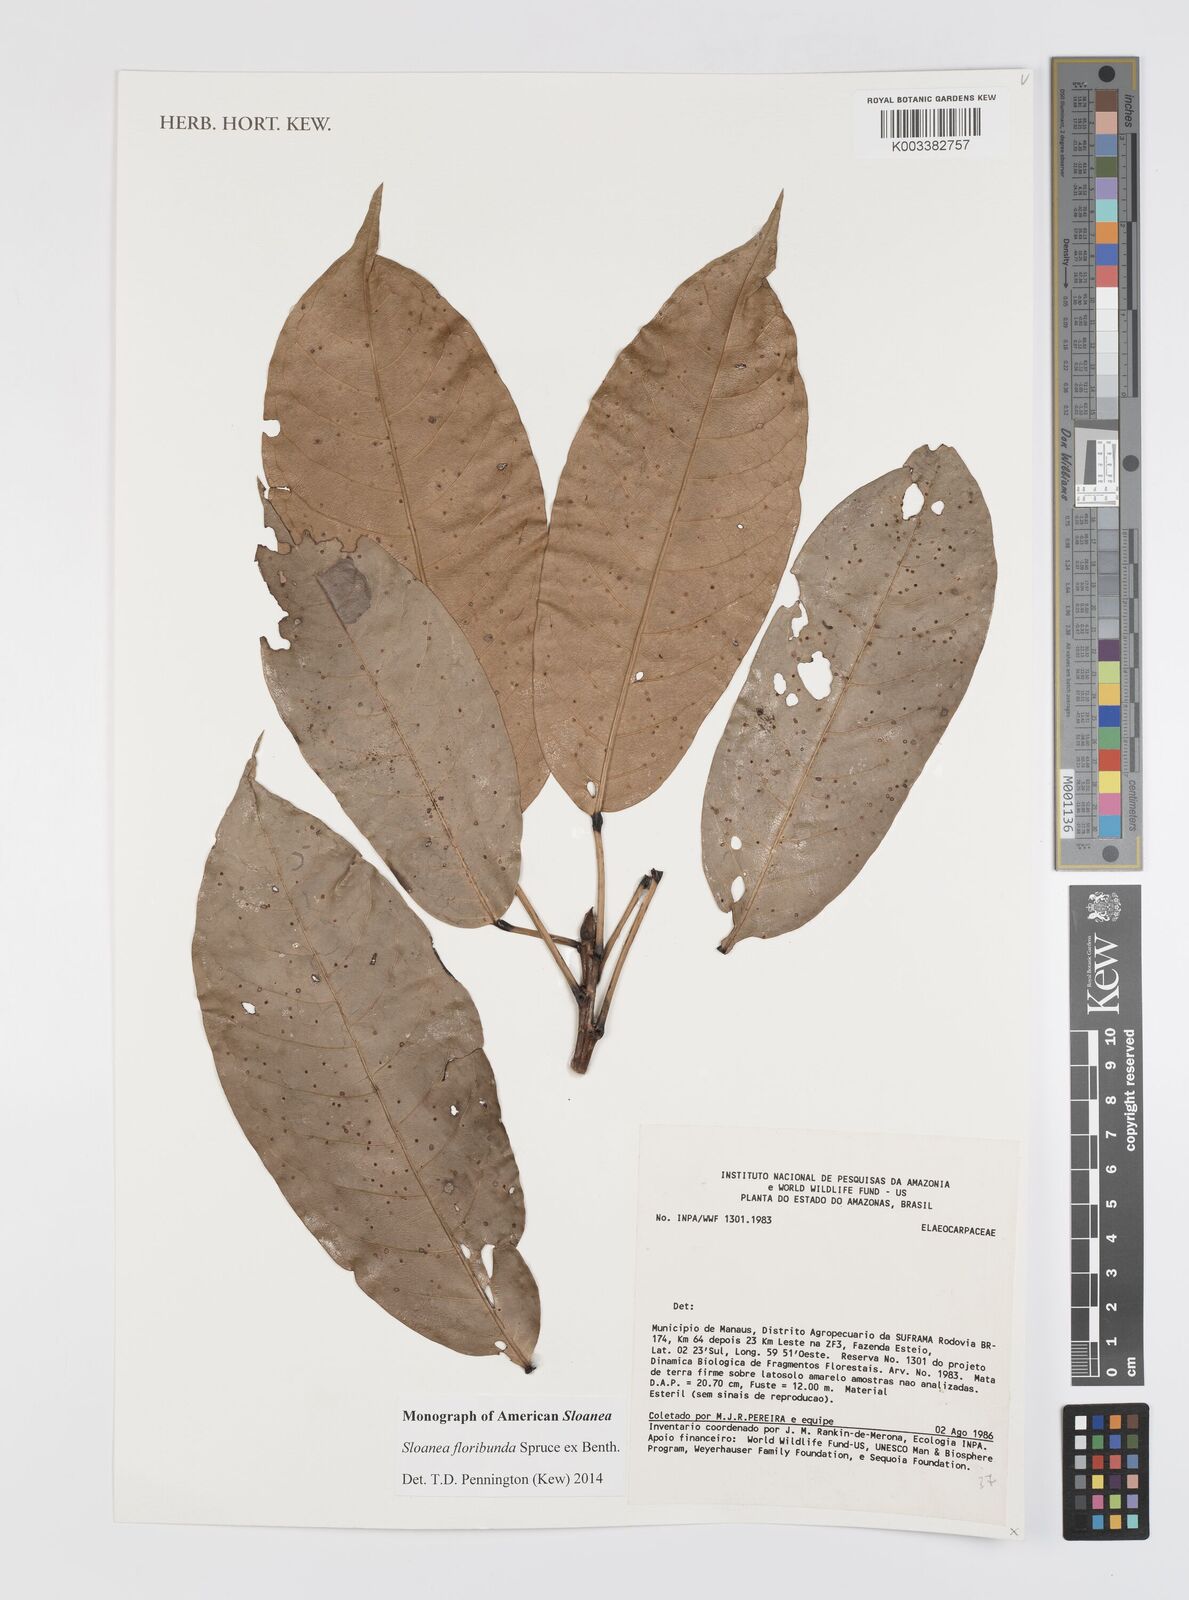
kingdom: Plantae
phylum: Tracheophyta
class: Magnoliopsida
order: Oxalidales
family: Elaeocarpaceae
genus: Sloanea
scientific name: Sloanea floribunda
